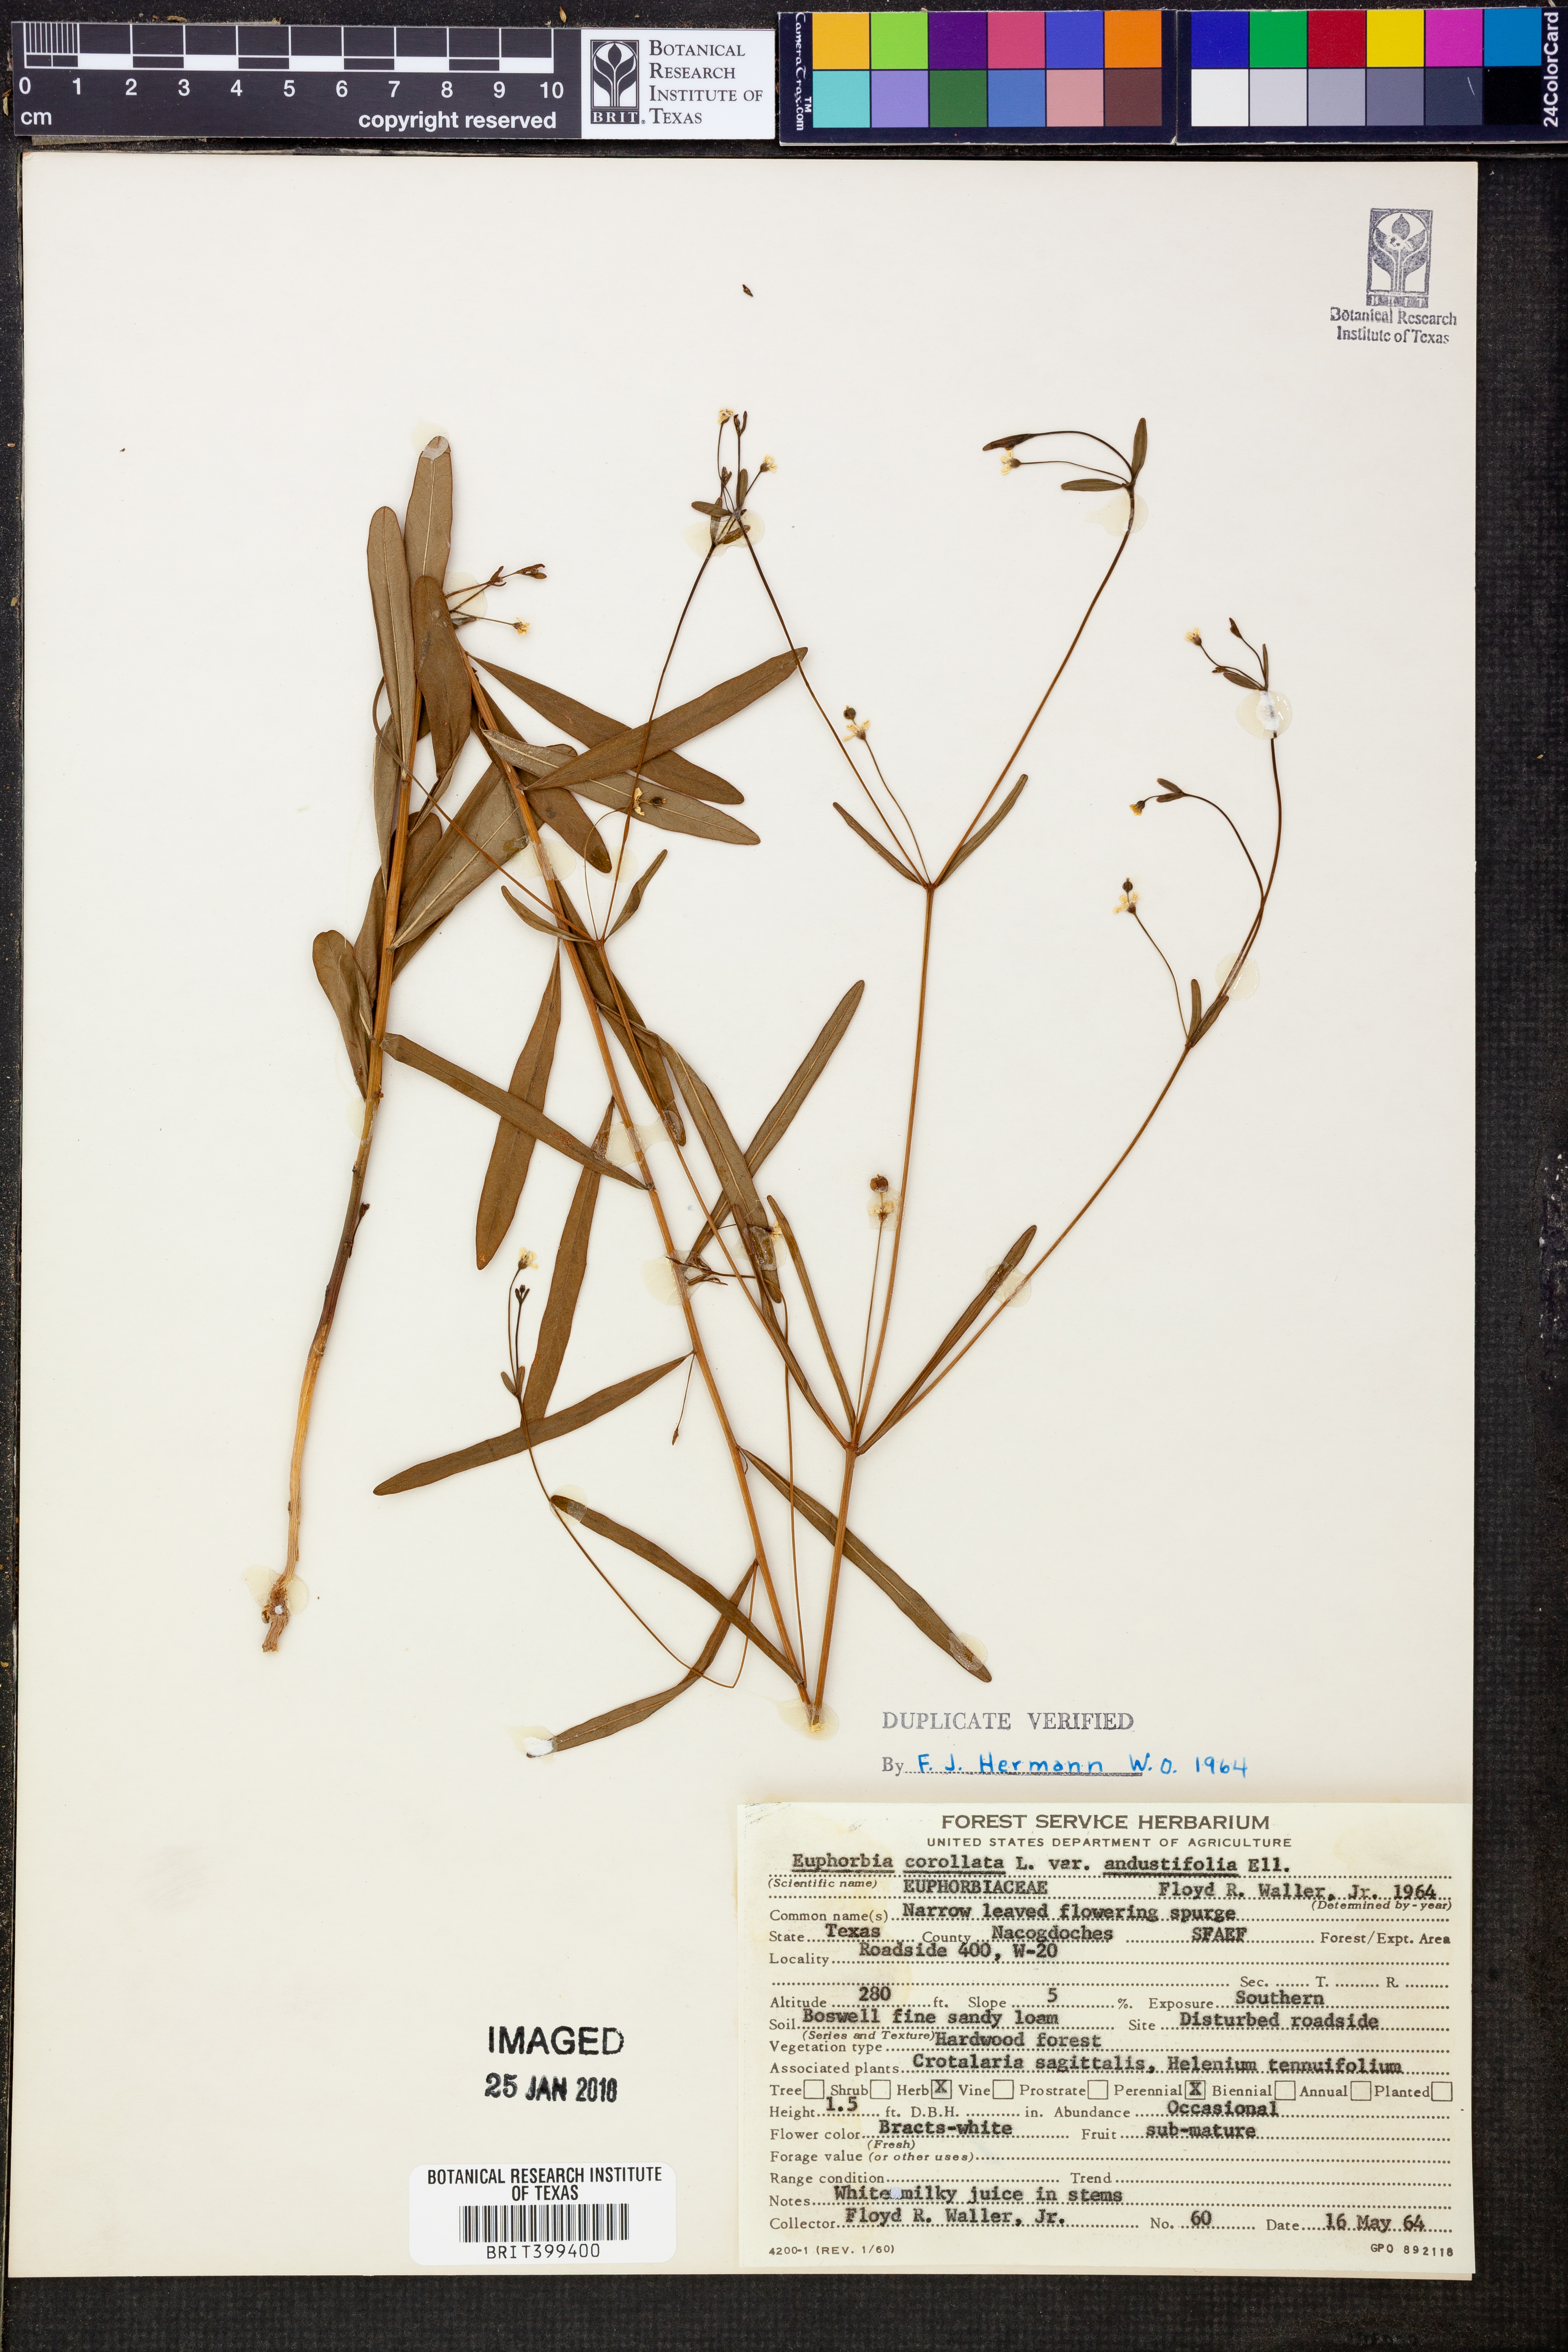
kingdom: Plantae
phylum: Tracheophyta
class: Magnoliopsida
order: Malpighiales
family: Euphorbiaceae
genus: Euphorbia
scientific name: Euphorbia discoidalis
